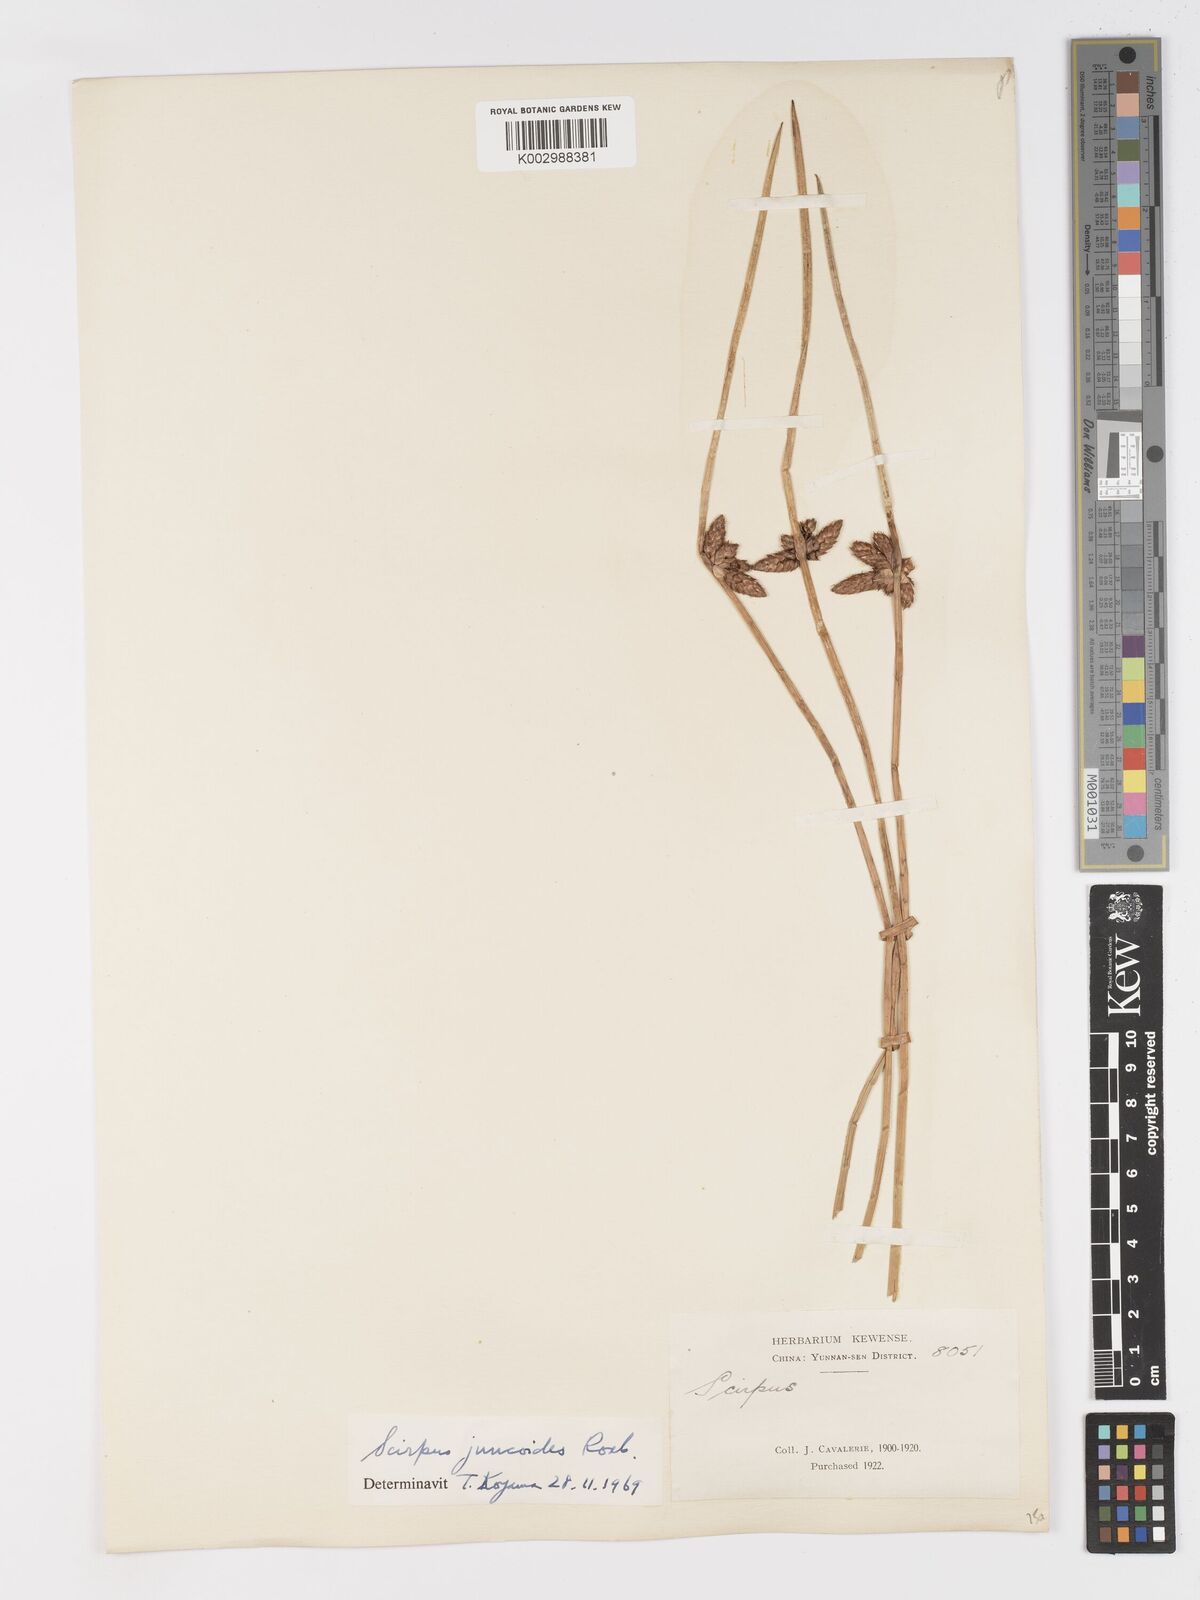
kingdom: Plantae
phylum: Tracheophyta
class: Liliopsida
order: Poales
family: Cyperaceae
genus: Schoenoplectiella
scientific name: Schoenoplectiella juncoides
